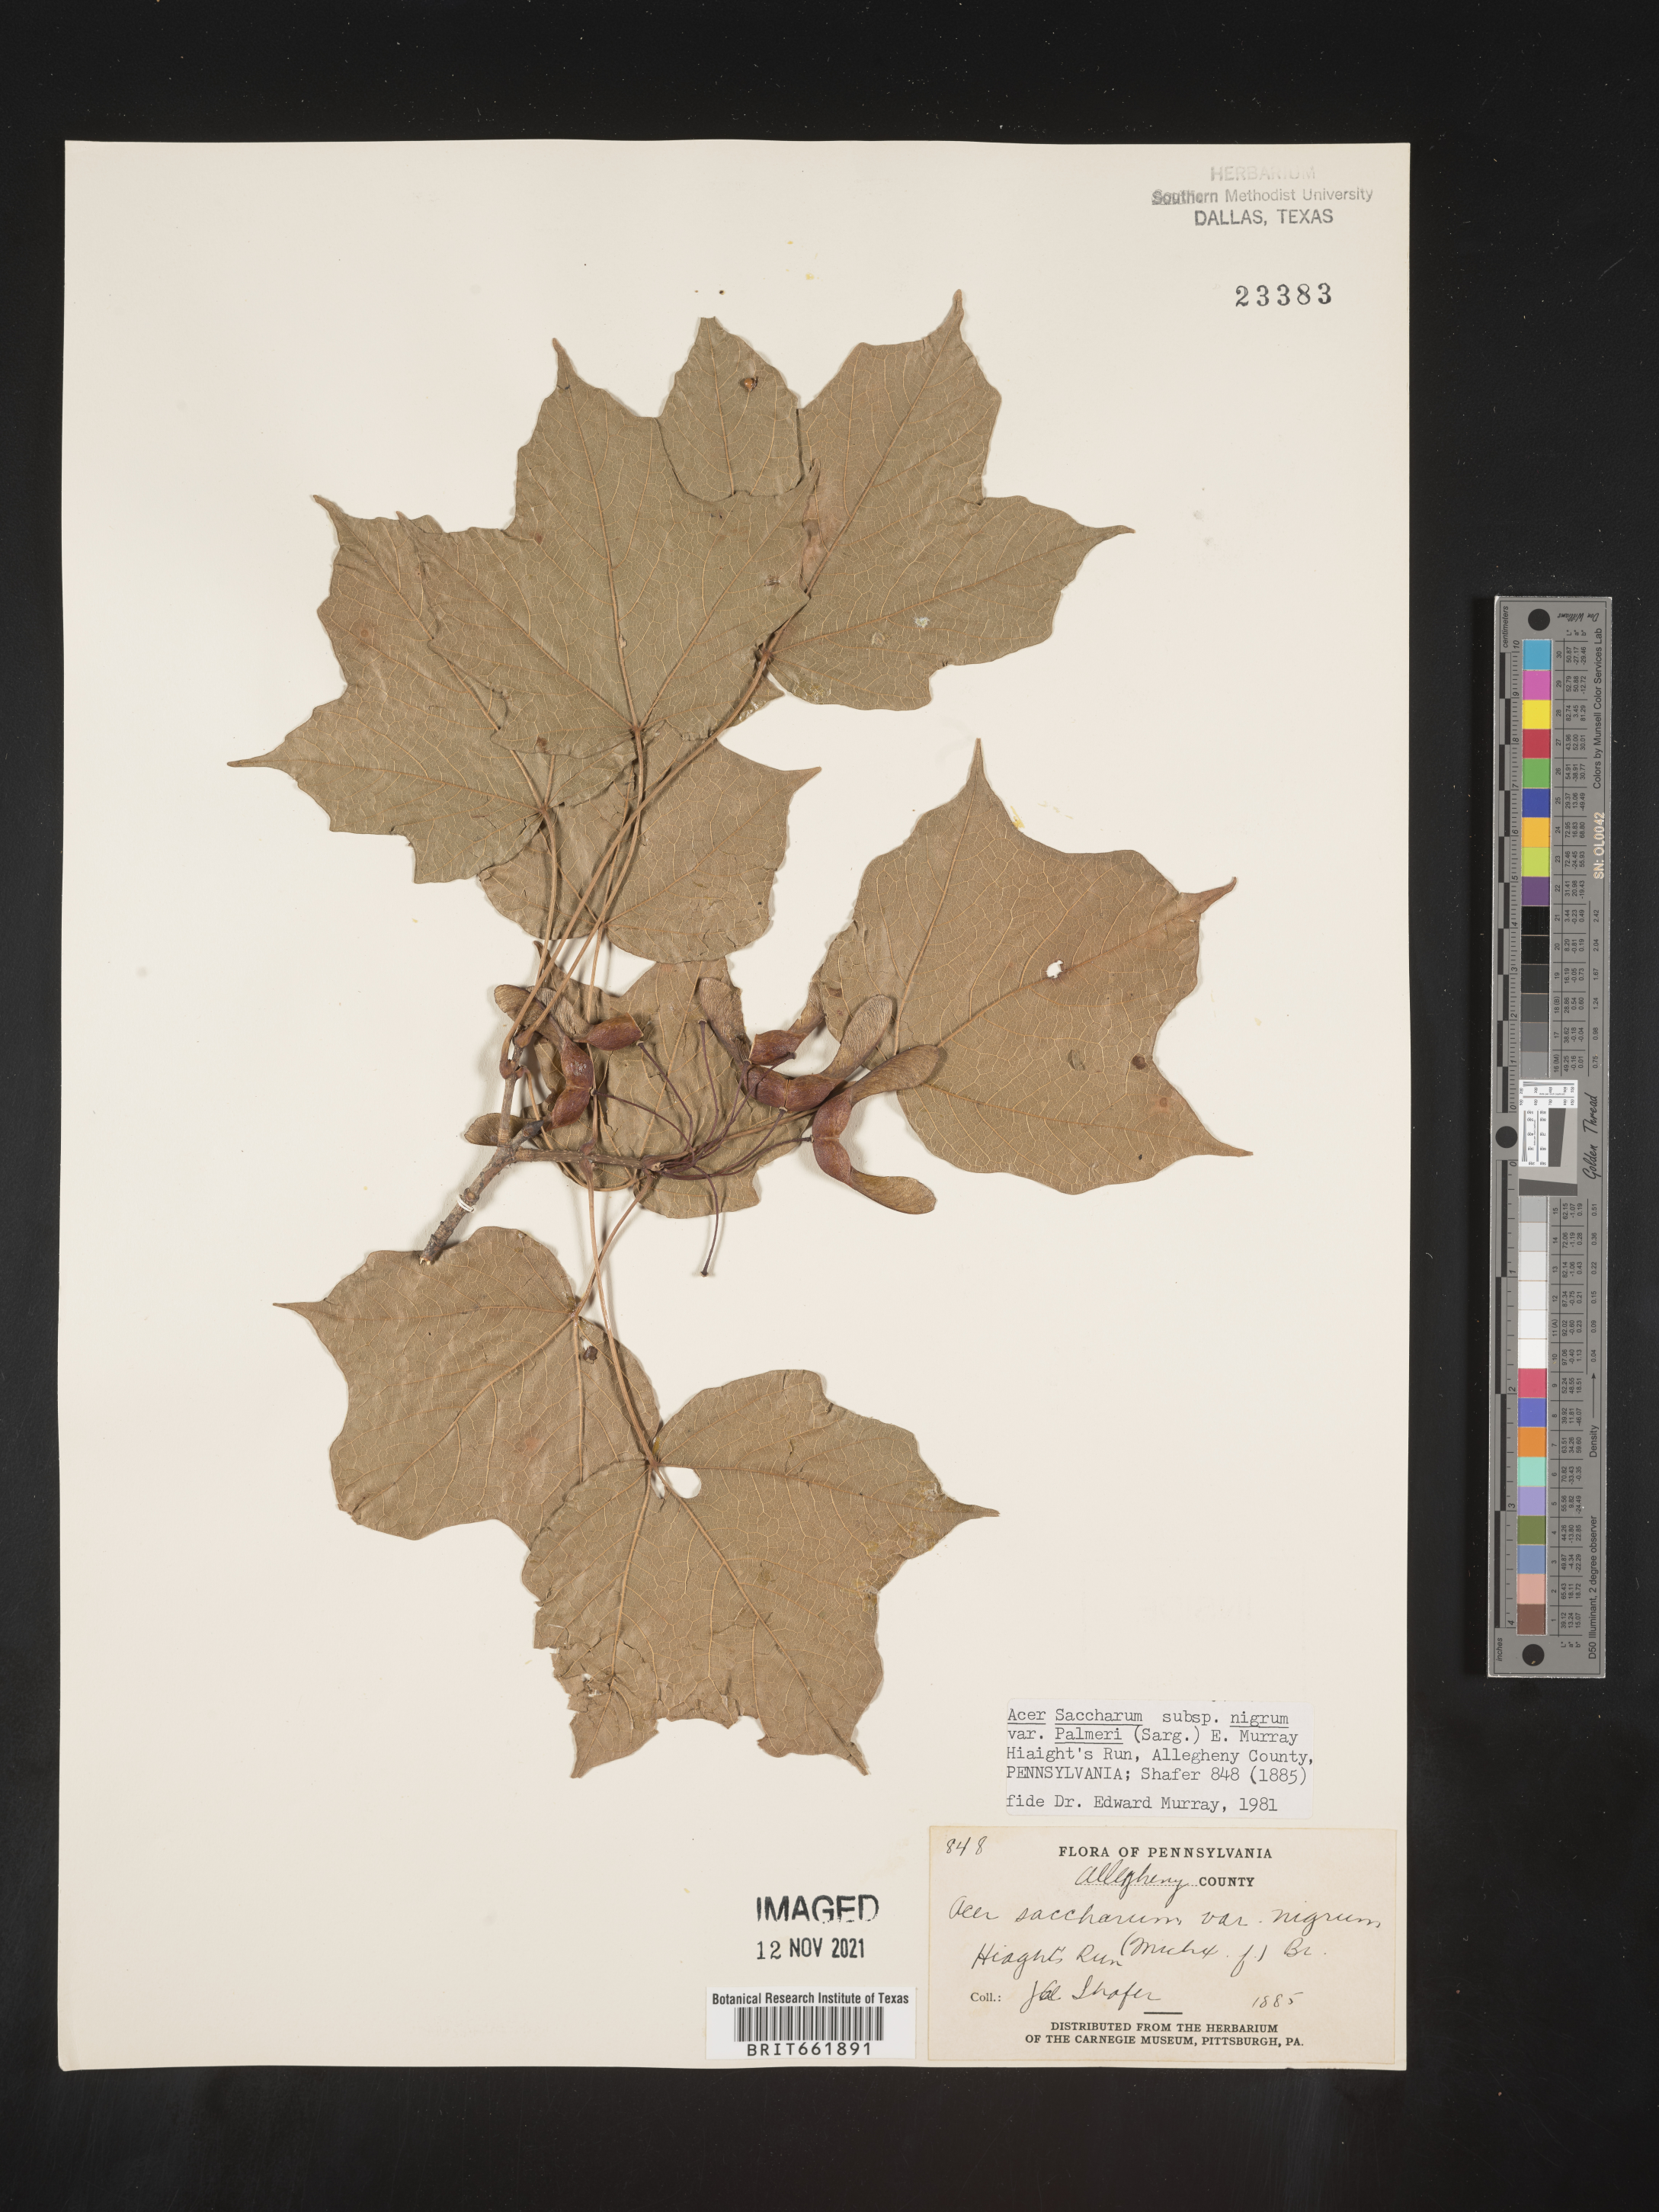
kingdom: Plantae
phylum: Tracheophyta
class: Magnoliopsida
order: Sapindales
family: Sapindaceae
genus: Acer
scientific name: Acer nigrum
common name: Black maple
